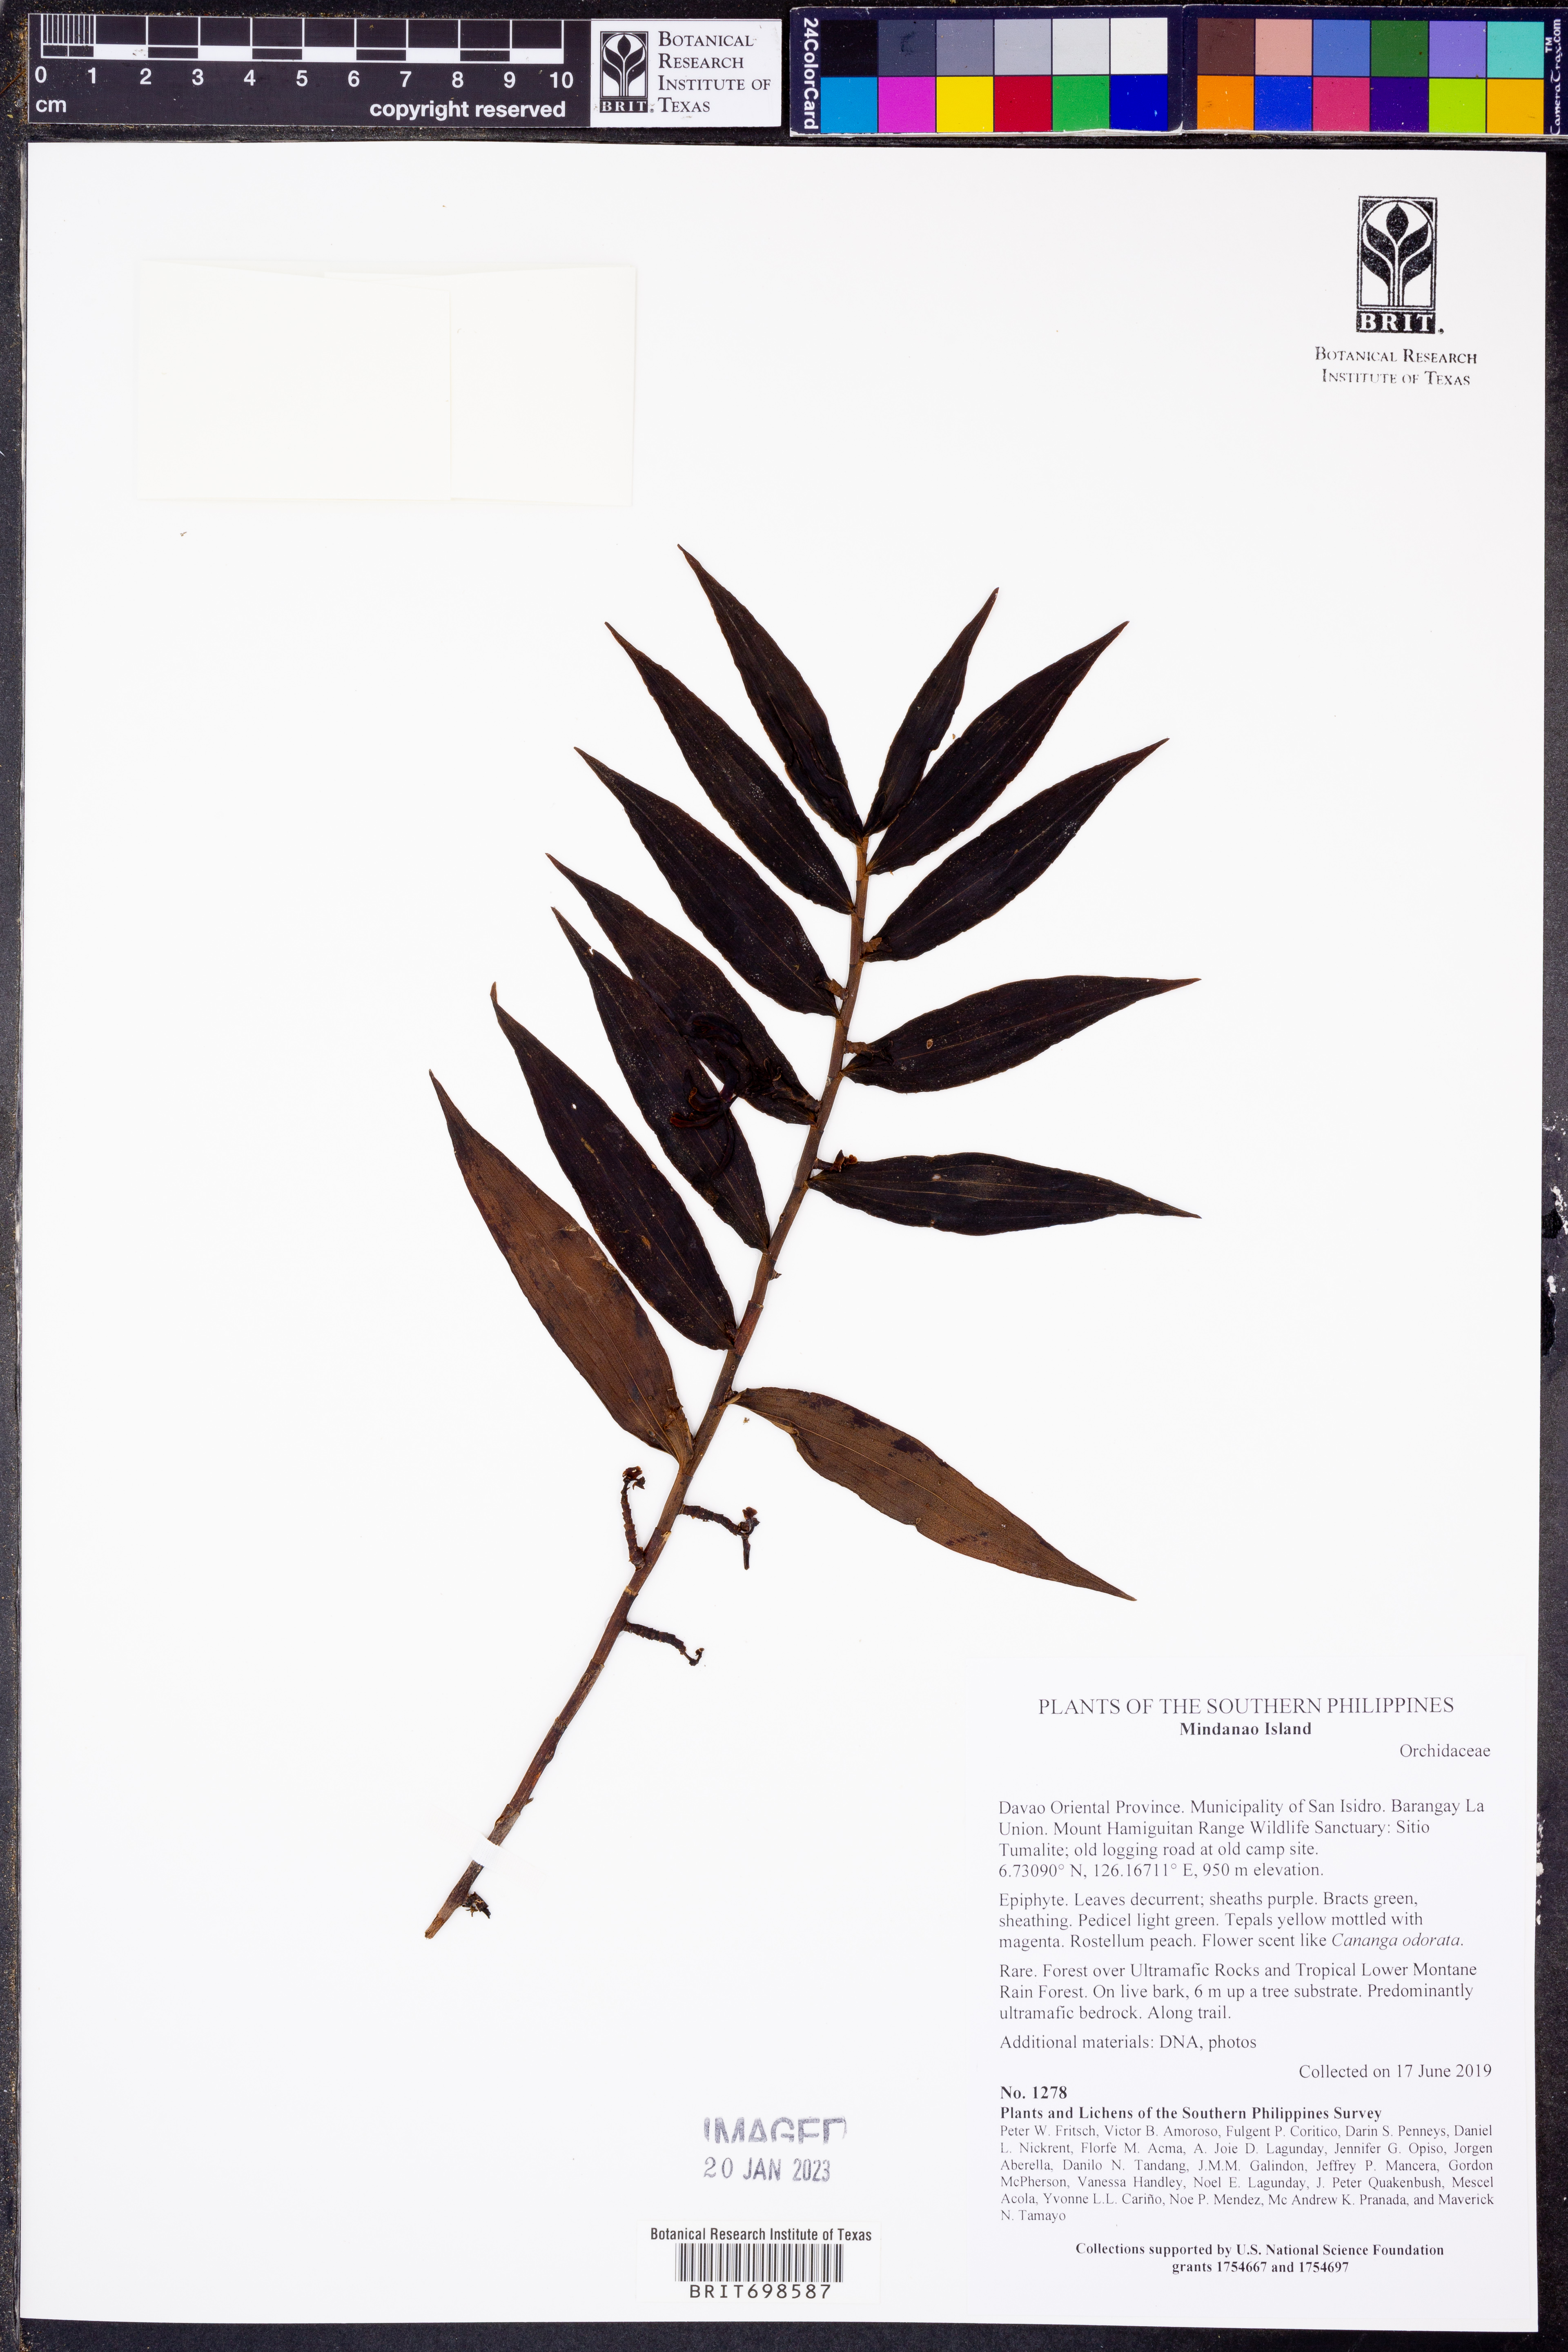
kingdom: Plantae
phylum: Tracheophyta
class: Liliopsida
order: Asparagales
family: Orchidaceae
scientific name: Orchidaceae
